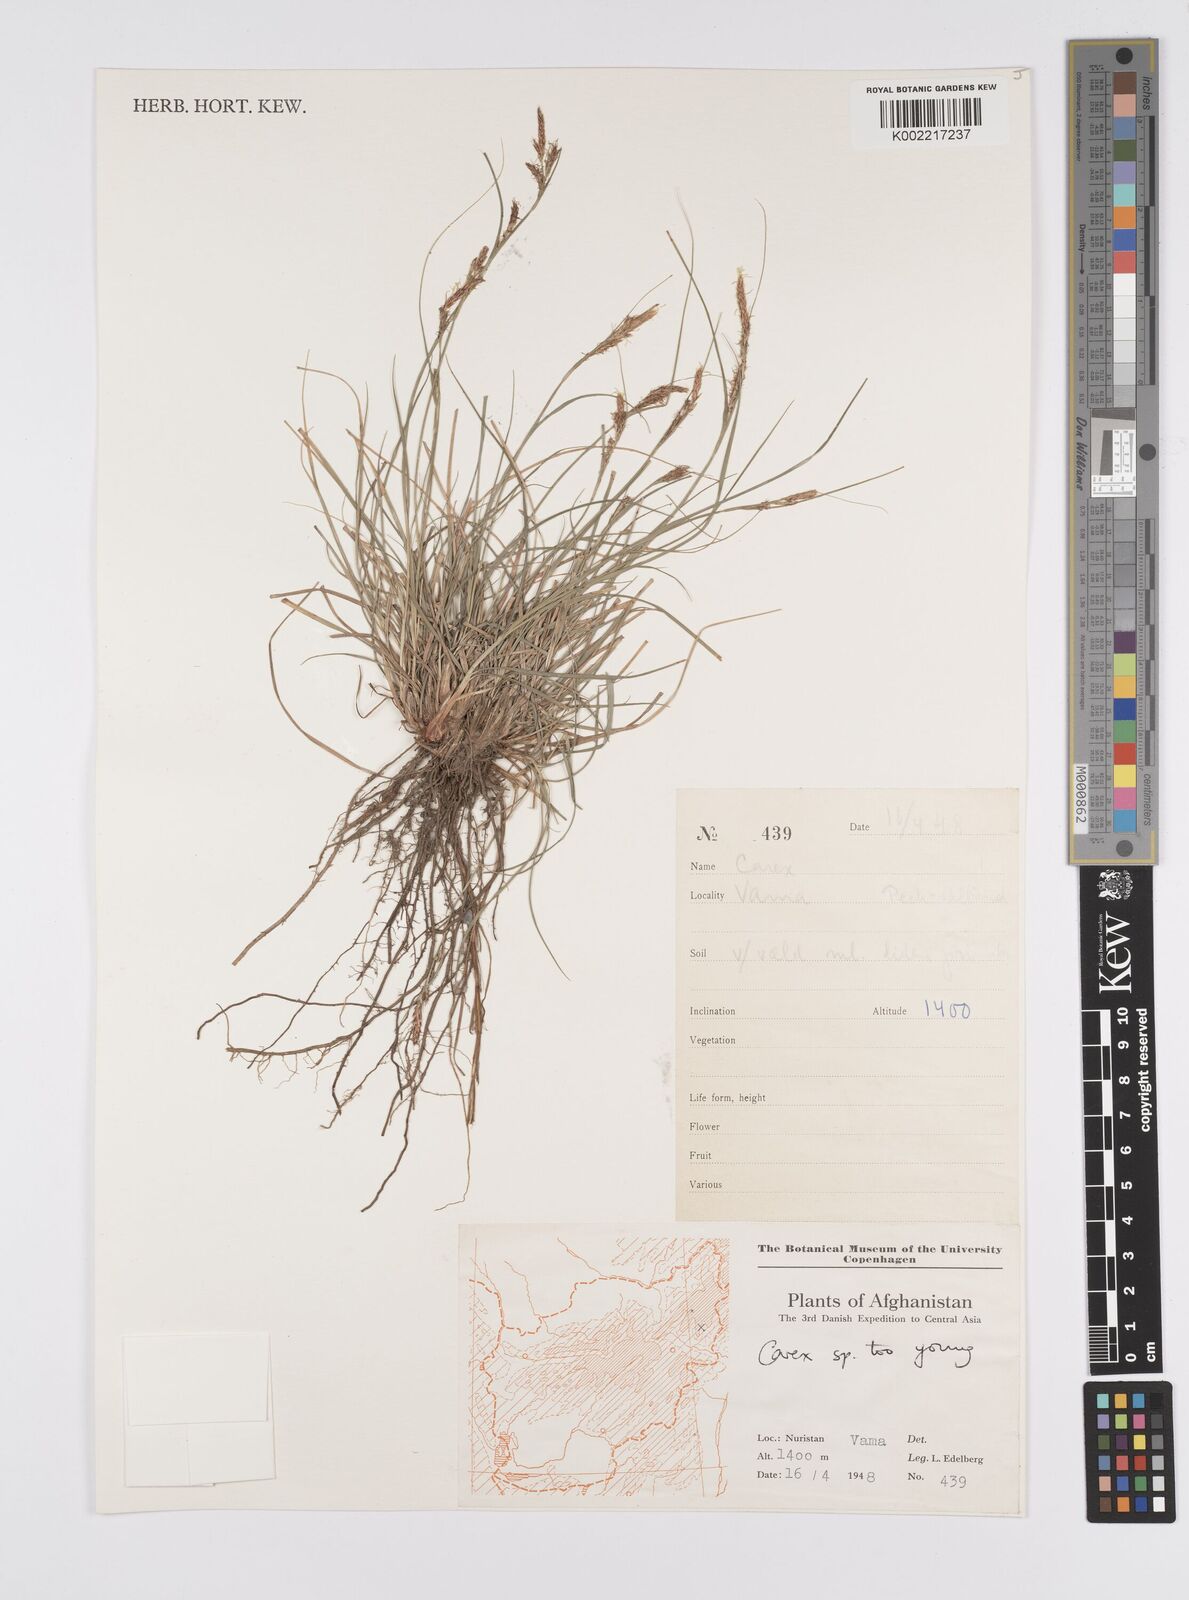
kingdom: Plantae
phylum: Tracheophyta
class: Liliopsida
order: Poales
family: Cyperaceae
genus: Carex
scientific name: Carex
